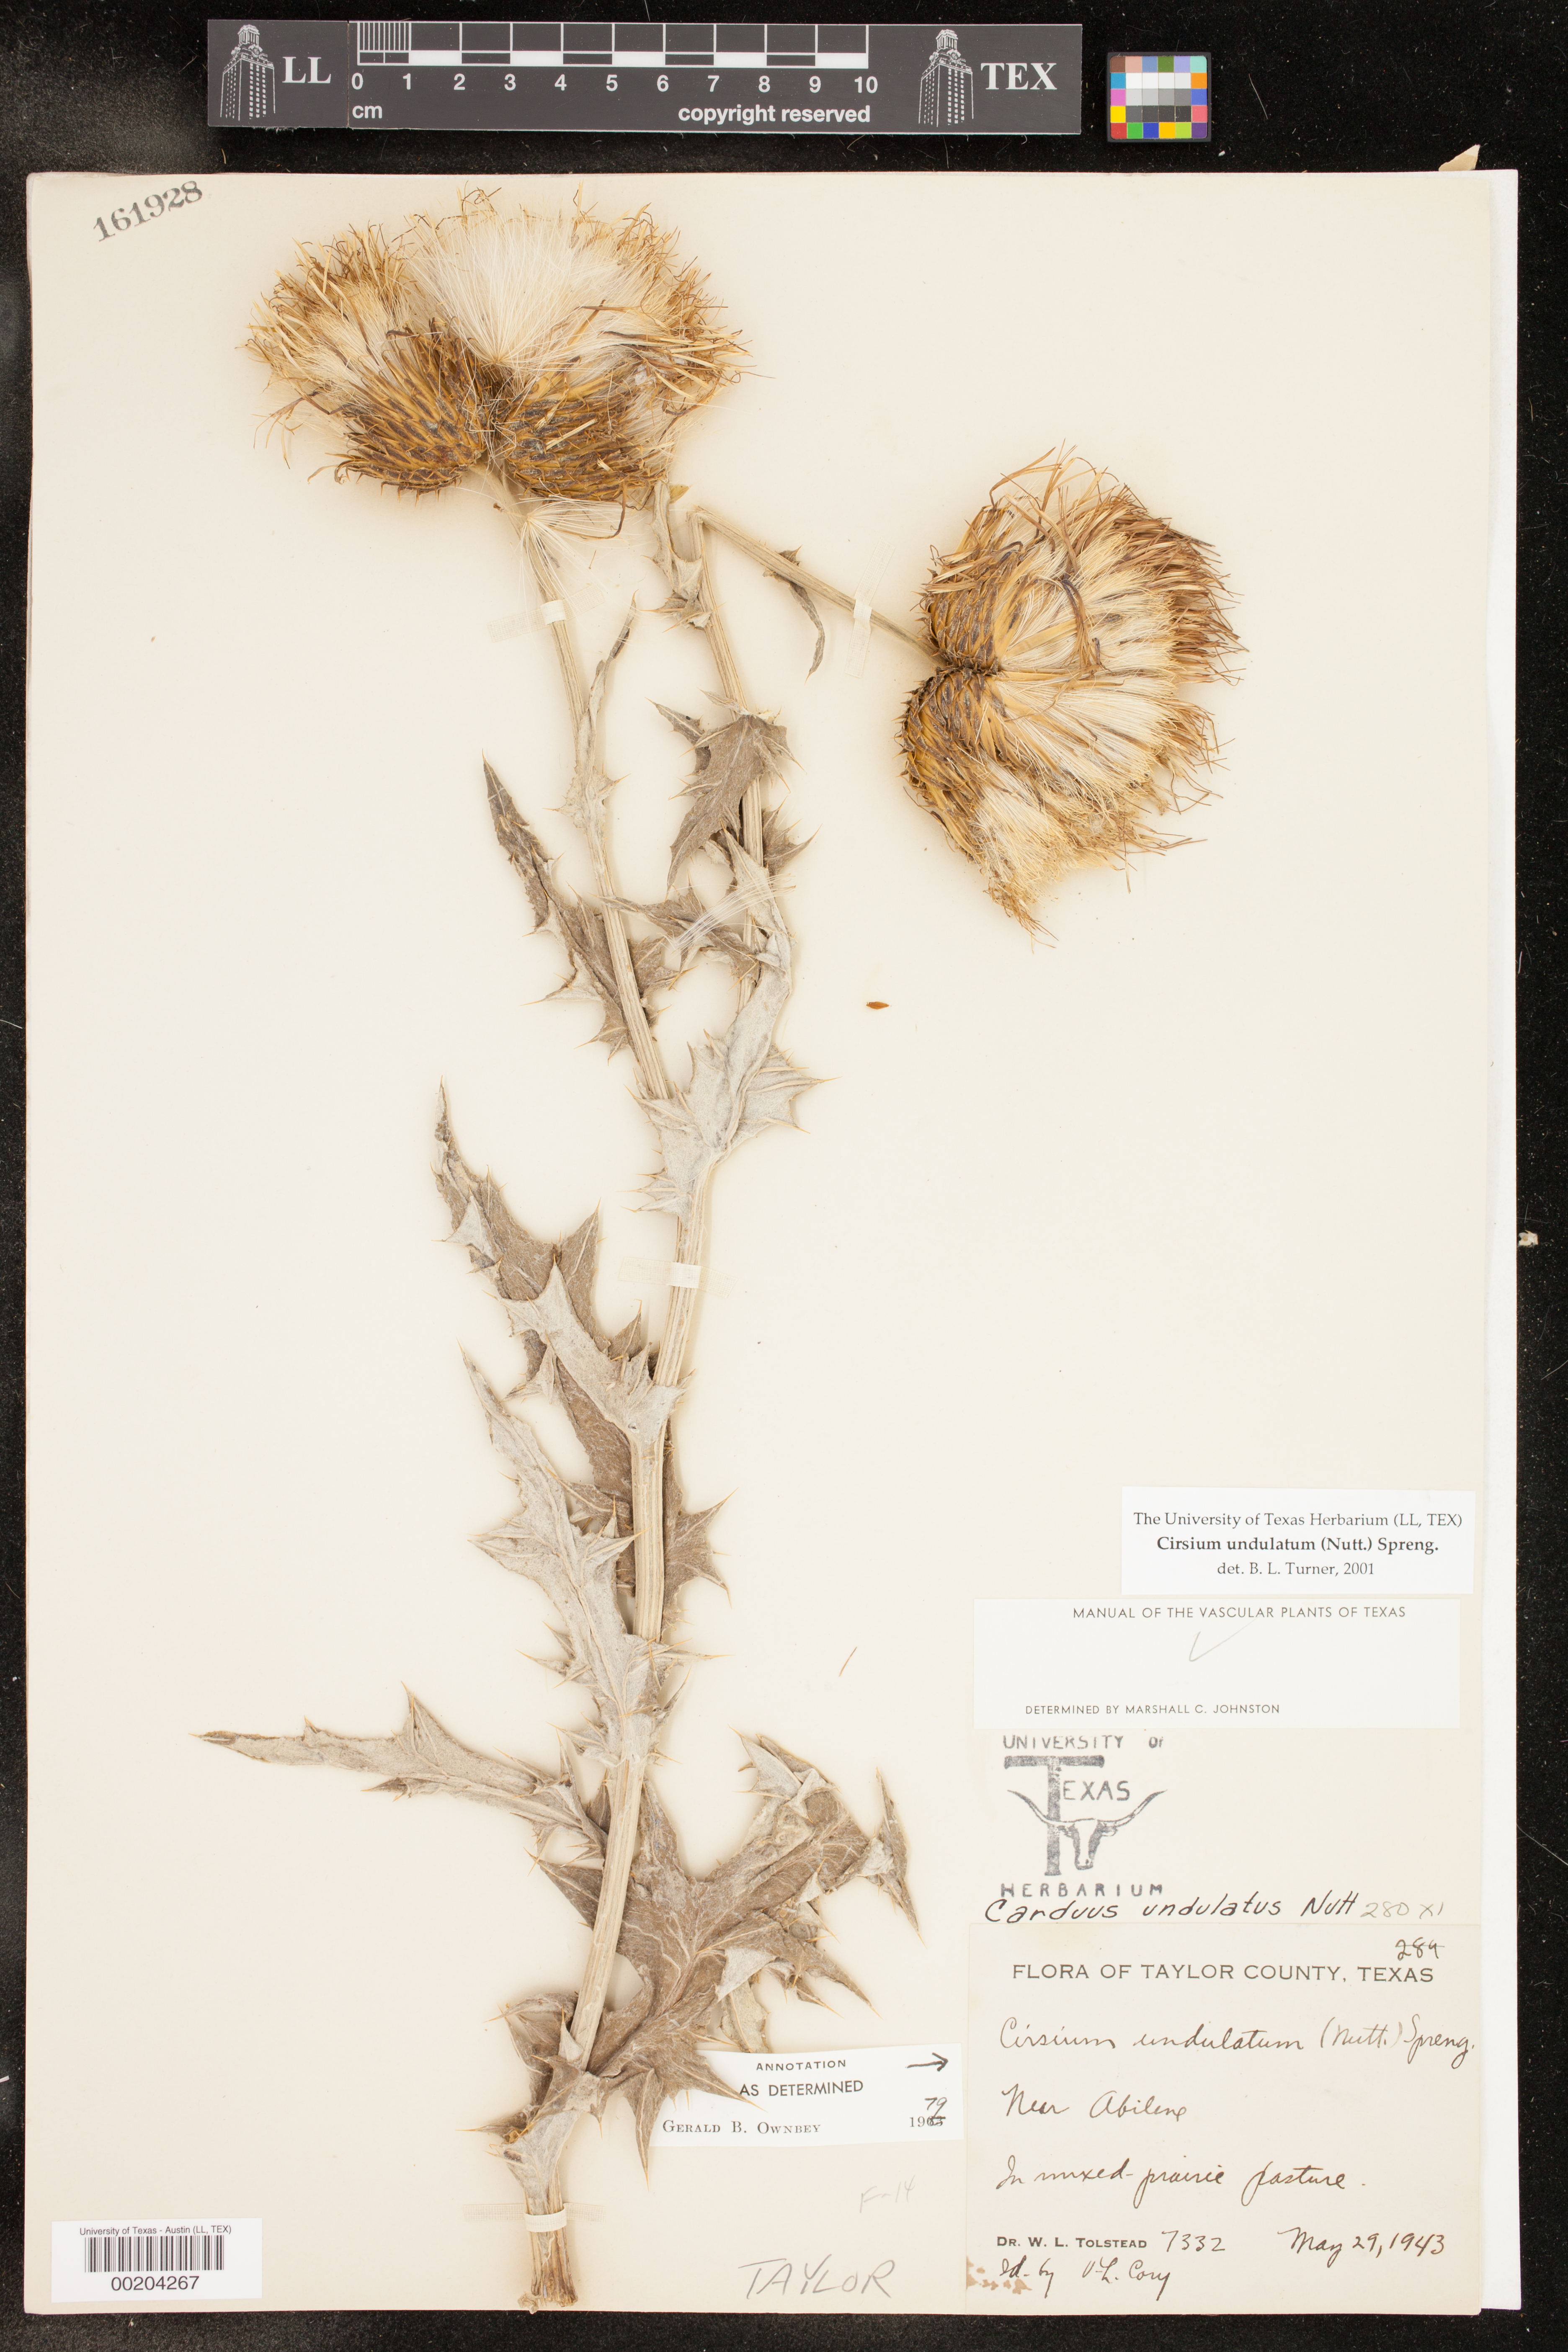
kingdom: Plantae
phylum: Tracheophyta
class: Magnoliopsida
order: Asterales
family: Asteraceae
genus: Cirsium
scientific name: Cirsium undulatum
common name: Pasture thistle
